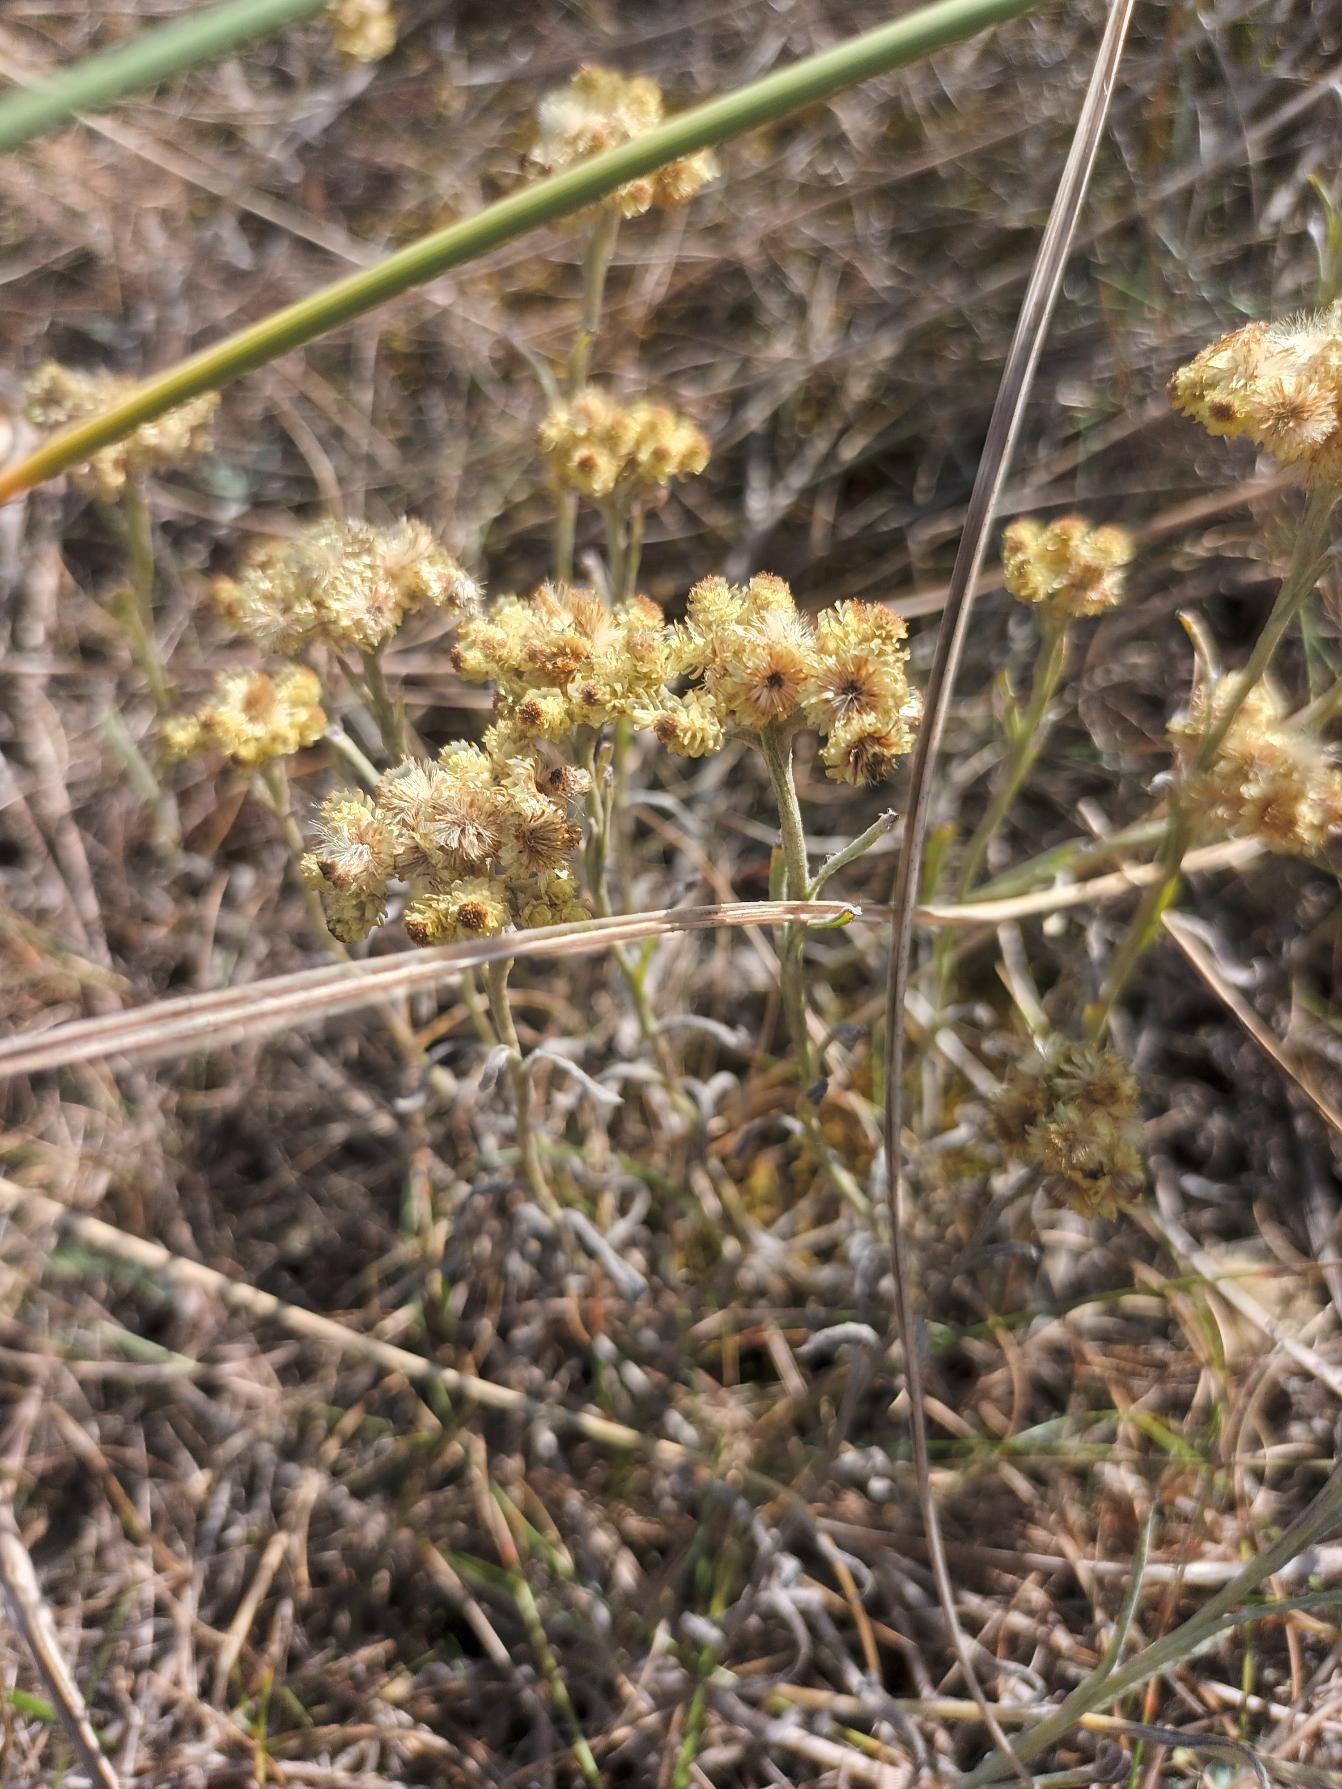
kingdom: Plantae
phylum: Tracheophyta
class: Magnoliopsida
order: Asterales
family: Asteraceae
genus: Helichrysum
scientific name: Helichrysum arenarium
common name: Gul evighedsblomst
